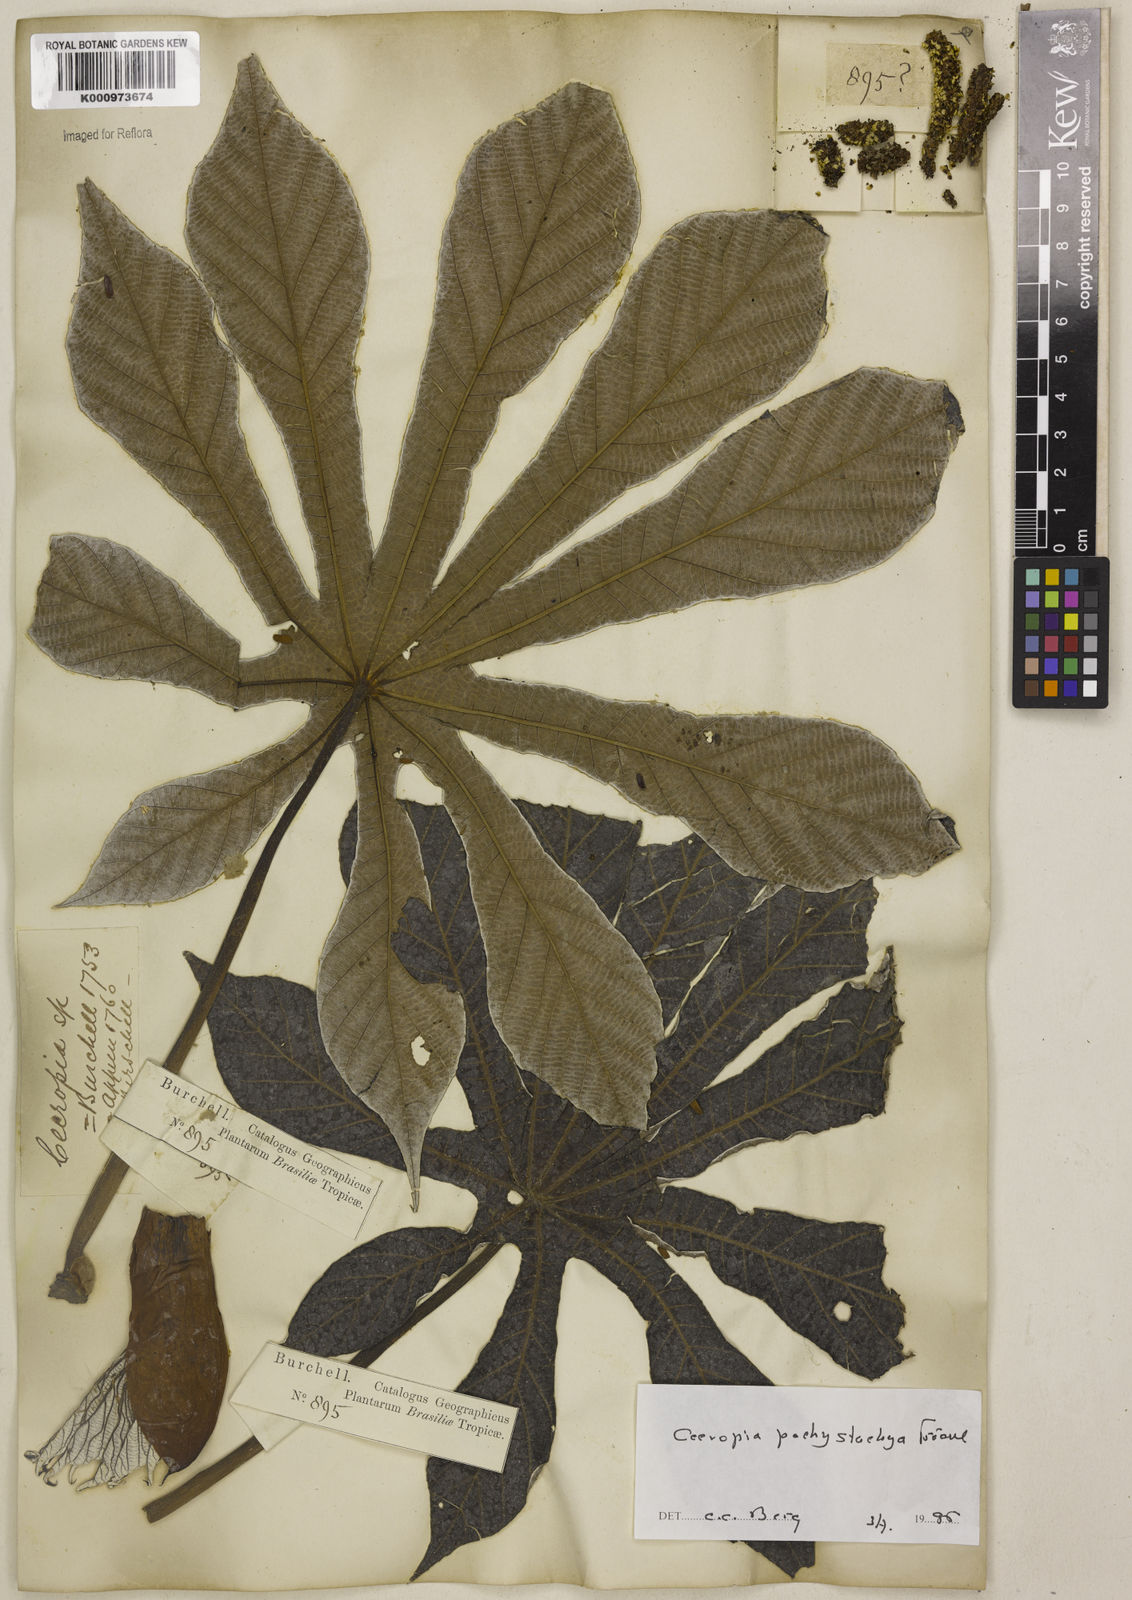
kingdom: Plantae
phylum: Tracheophyta
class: Magnoliopsida
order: Rosales
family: Urticaceae
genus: Cecropia
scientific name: Cecropia
